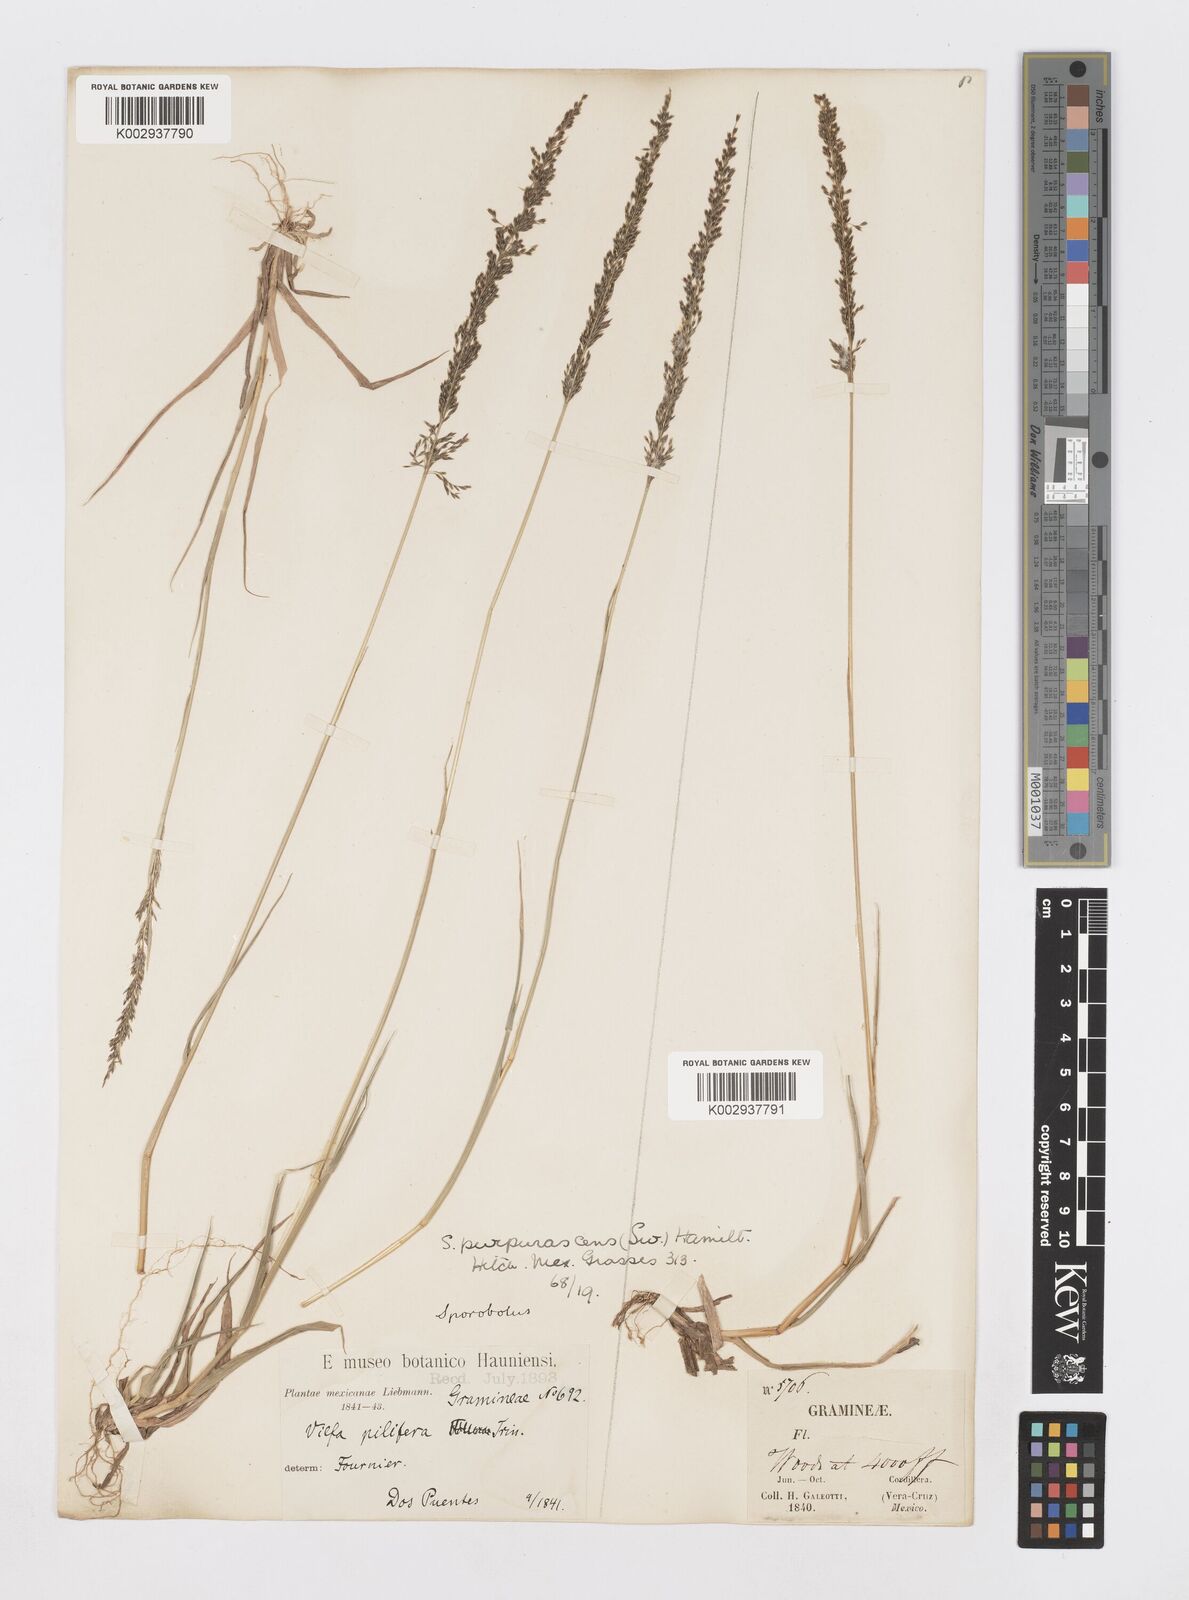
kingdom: Plantae
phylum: Tracheophyta
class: Liliopsida
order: Poales
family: Poaceae
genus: Sporobolus
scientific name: Sporobolus purpurascens
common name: Purple dropseed
